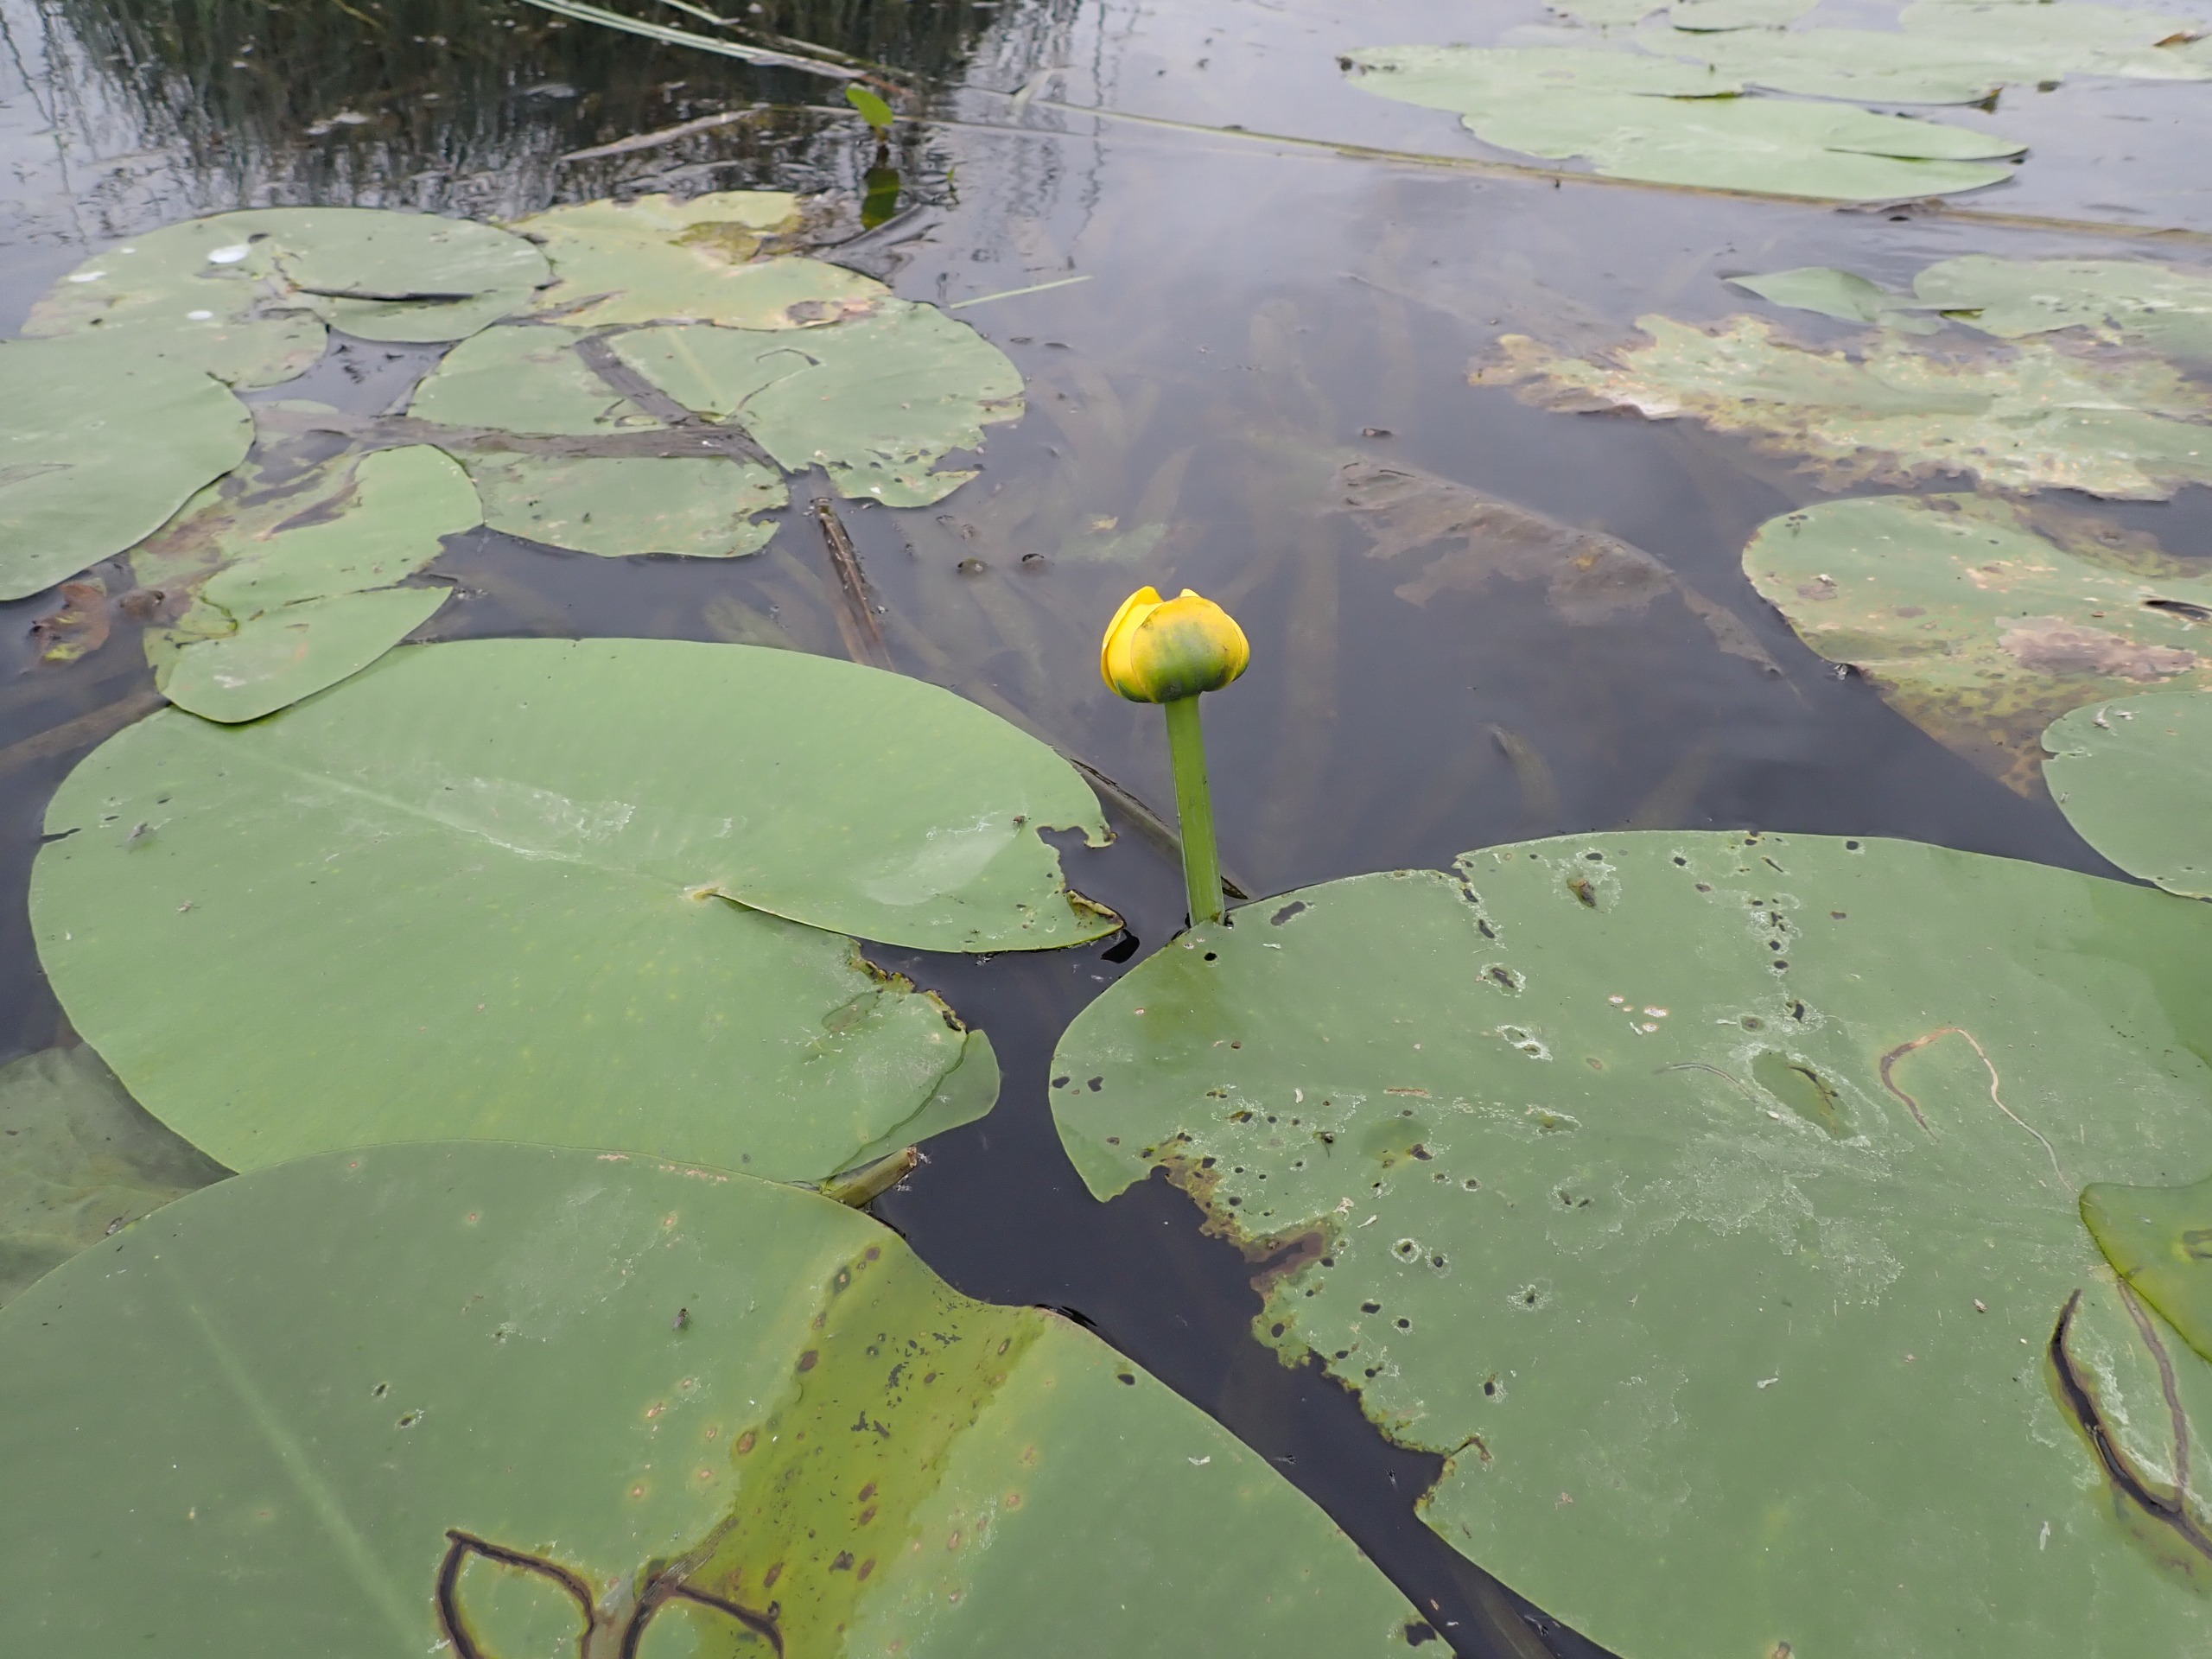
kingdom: Plantae
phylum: Tracheophyta
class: Magnoliopsida
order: Nymphaeales
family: Nymphaeaceae
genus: Nuphar
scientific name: Nuphar lutea
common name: Gul åkande
